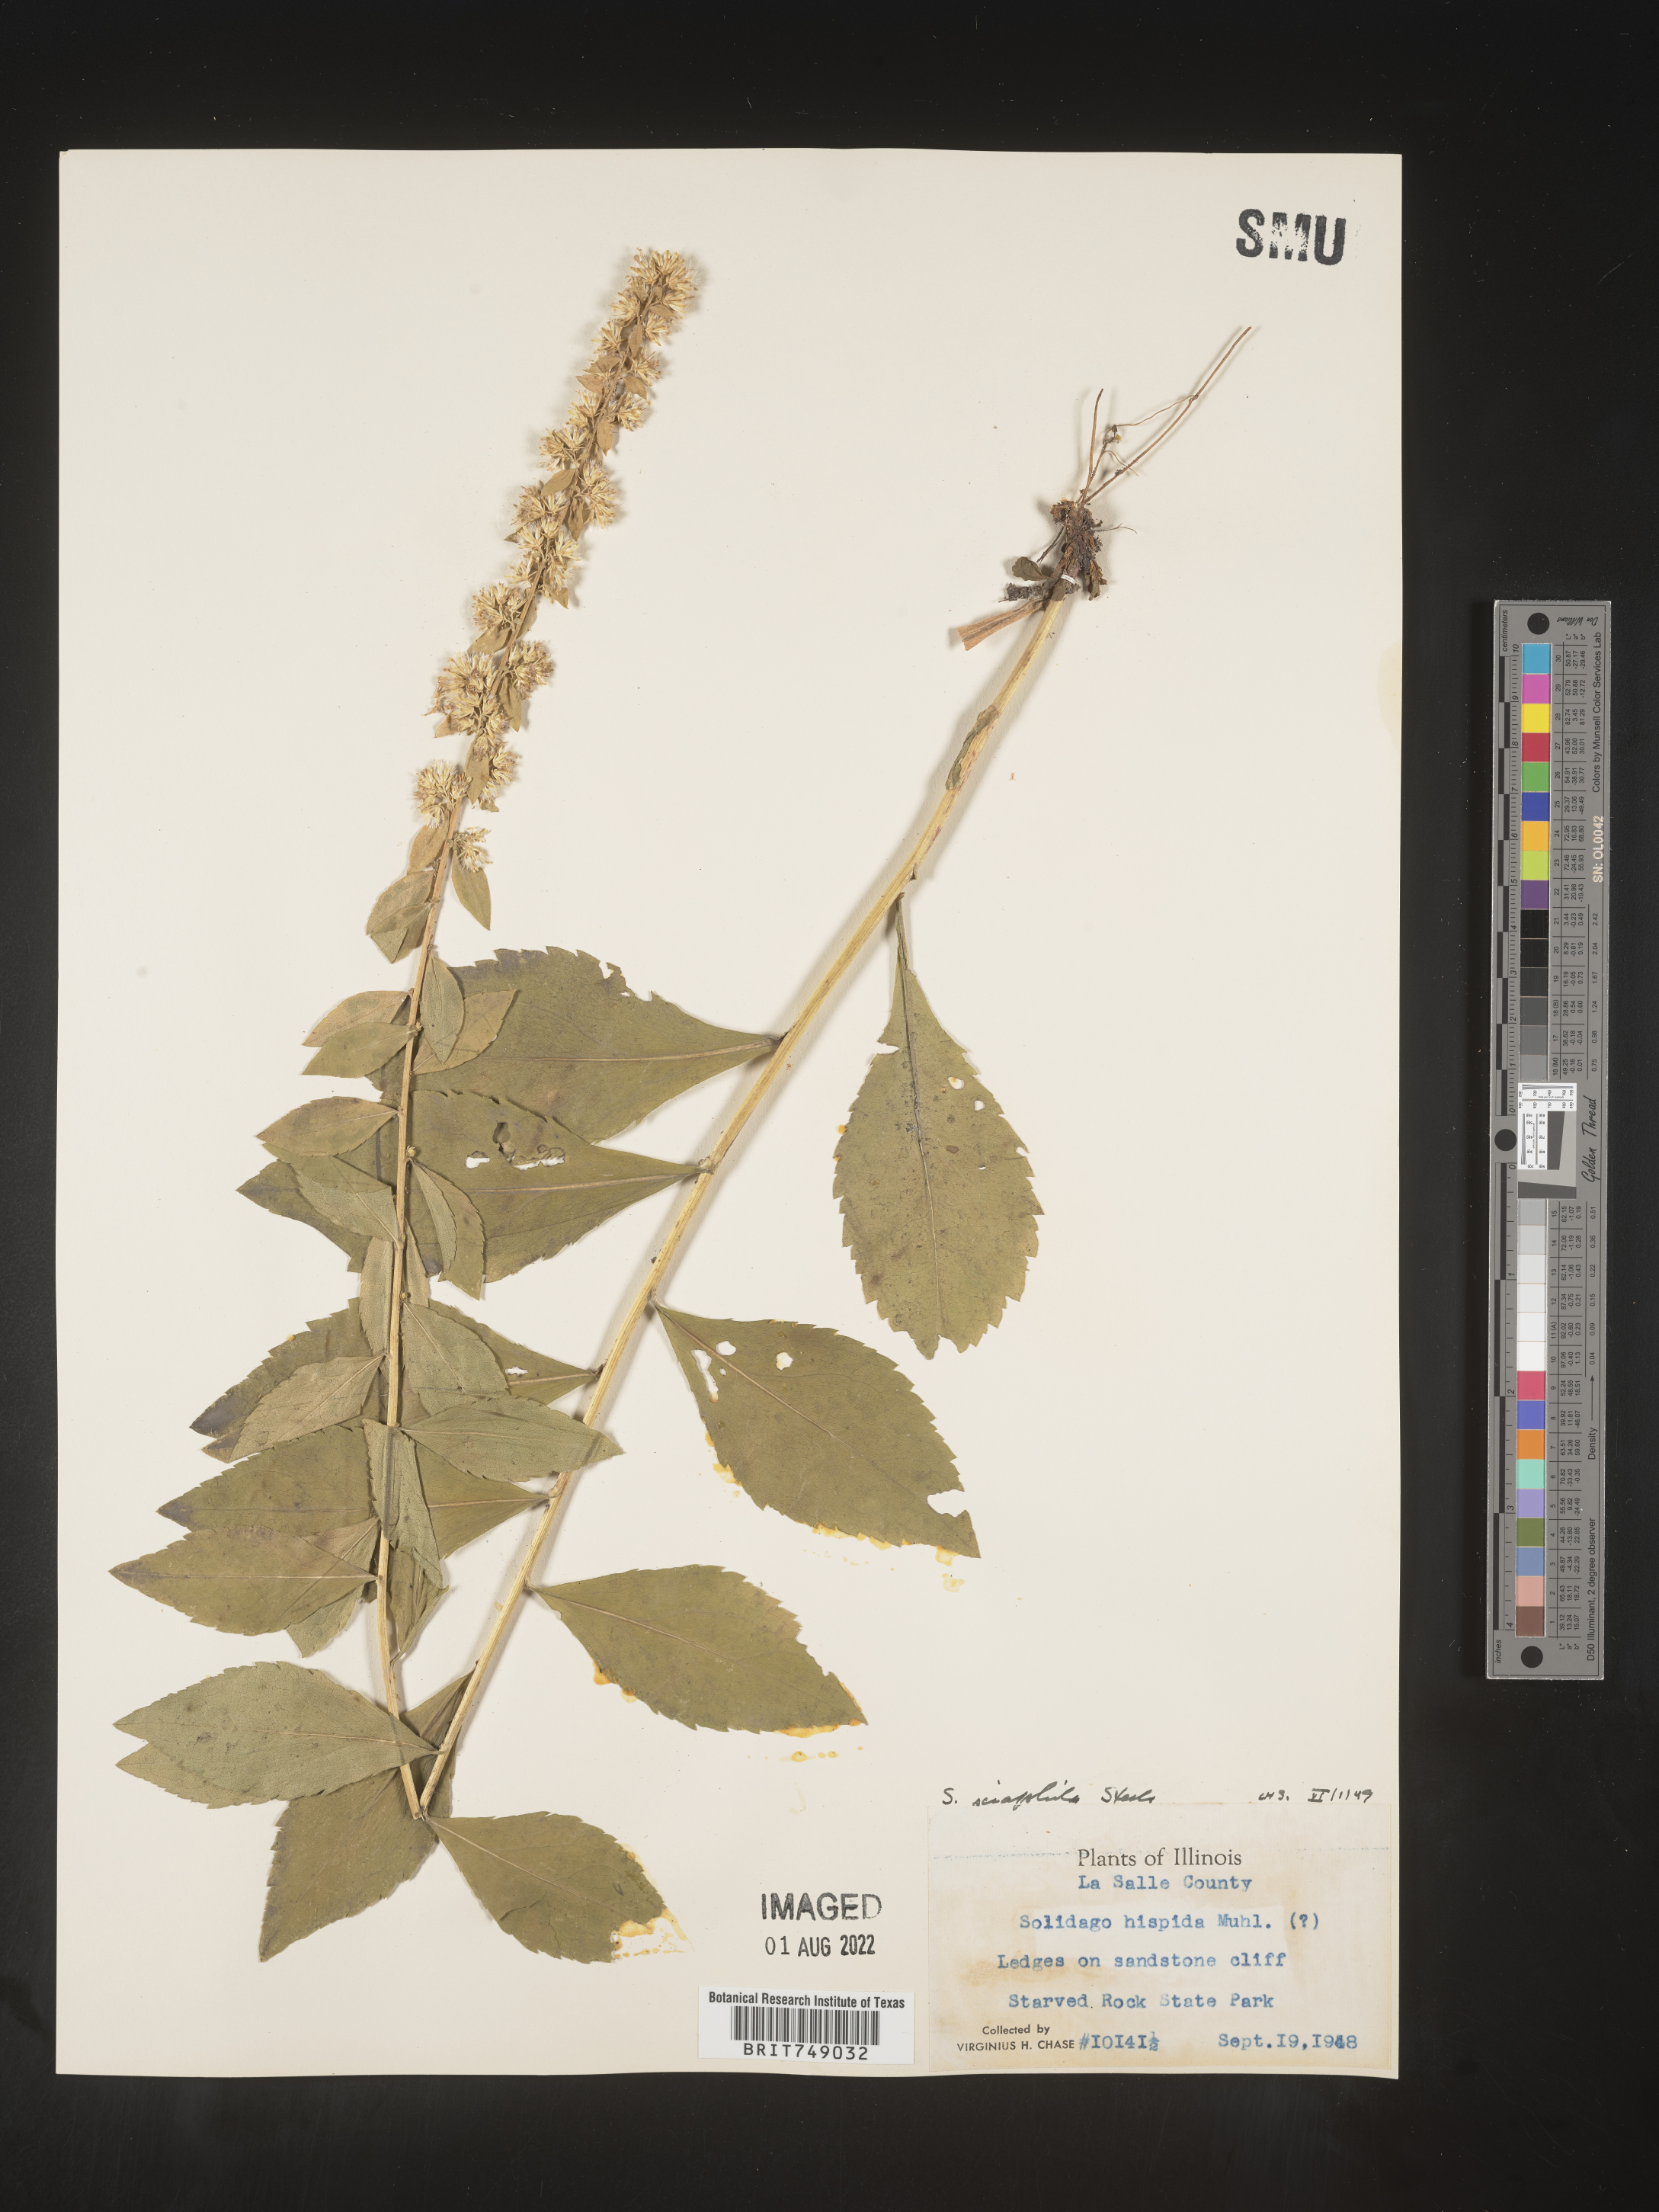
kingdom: Plantae
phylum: Tracheophyta
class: Magnoliopsida
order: Asterales
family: Asteraceae
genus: Solidago
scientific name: Solidago sciaphila
